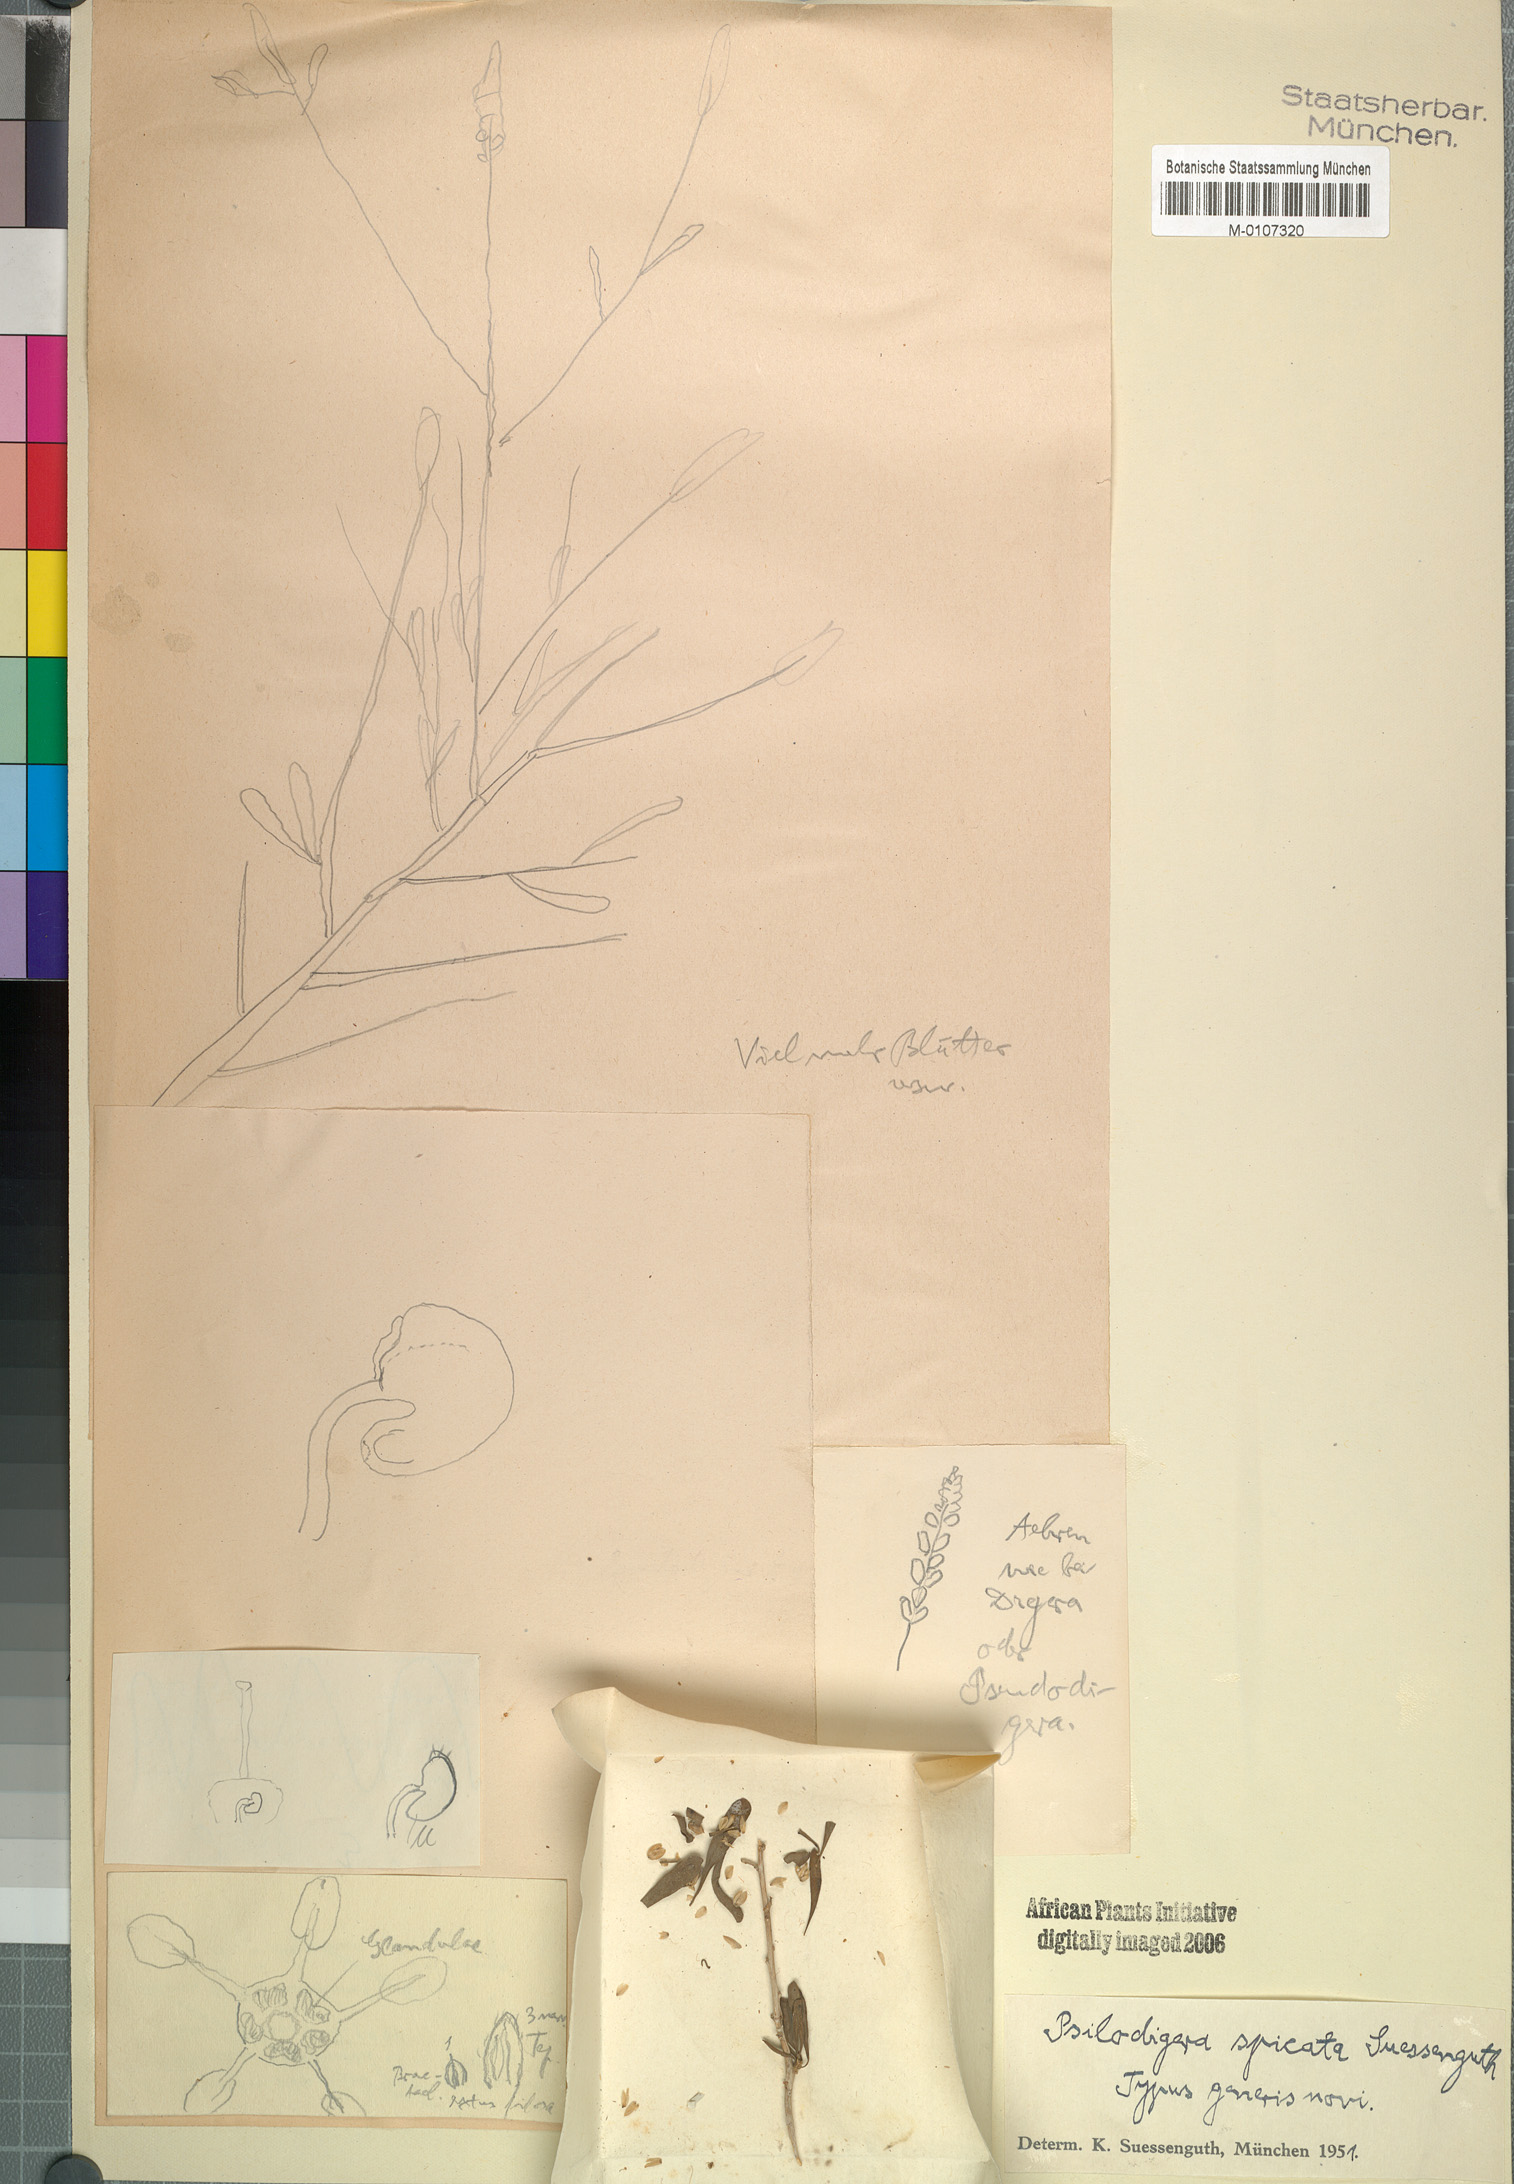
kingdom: Plantae
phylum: Tracheophyta
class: Magnoliopsida
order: Caryophyllales
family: Amaranthaceae
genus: Saltia
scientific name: Saltia papposa
